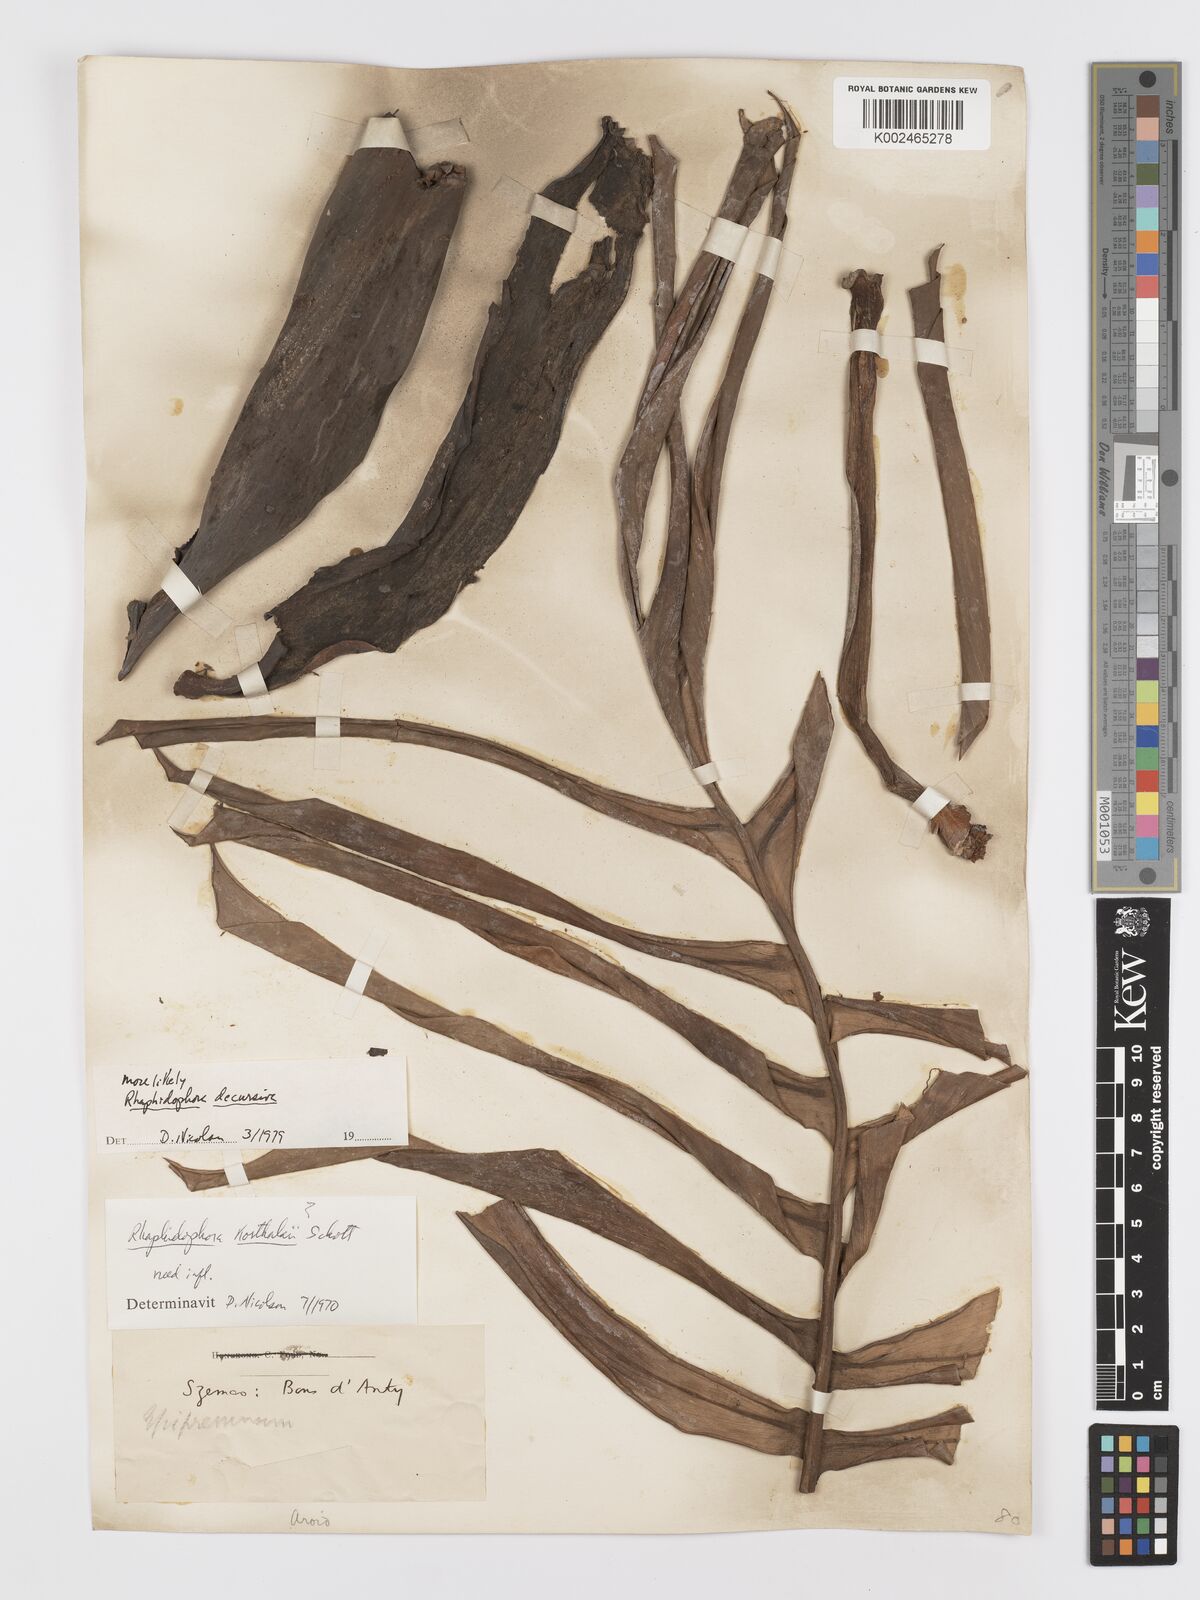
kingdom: Plantae
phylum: Tracheophyta
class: Liliopsida
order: Alismatales
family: Araceae
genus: Rhaphidophora
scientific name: Rhaphidophora decursiva
